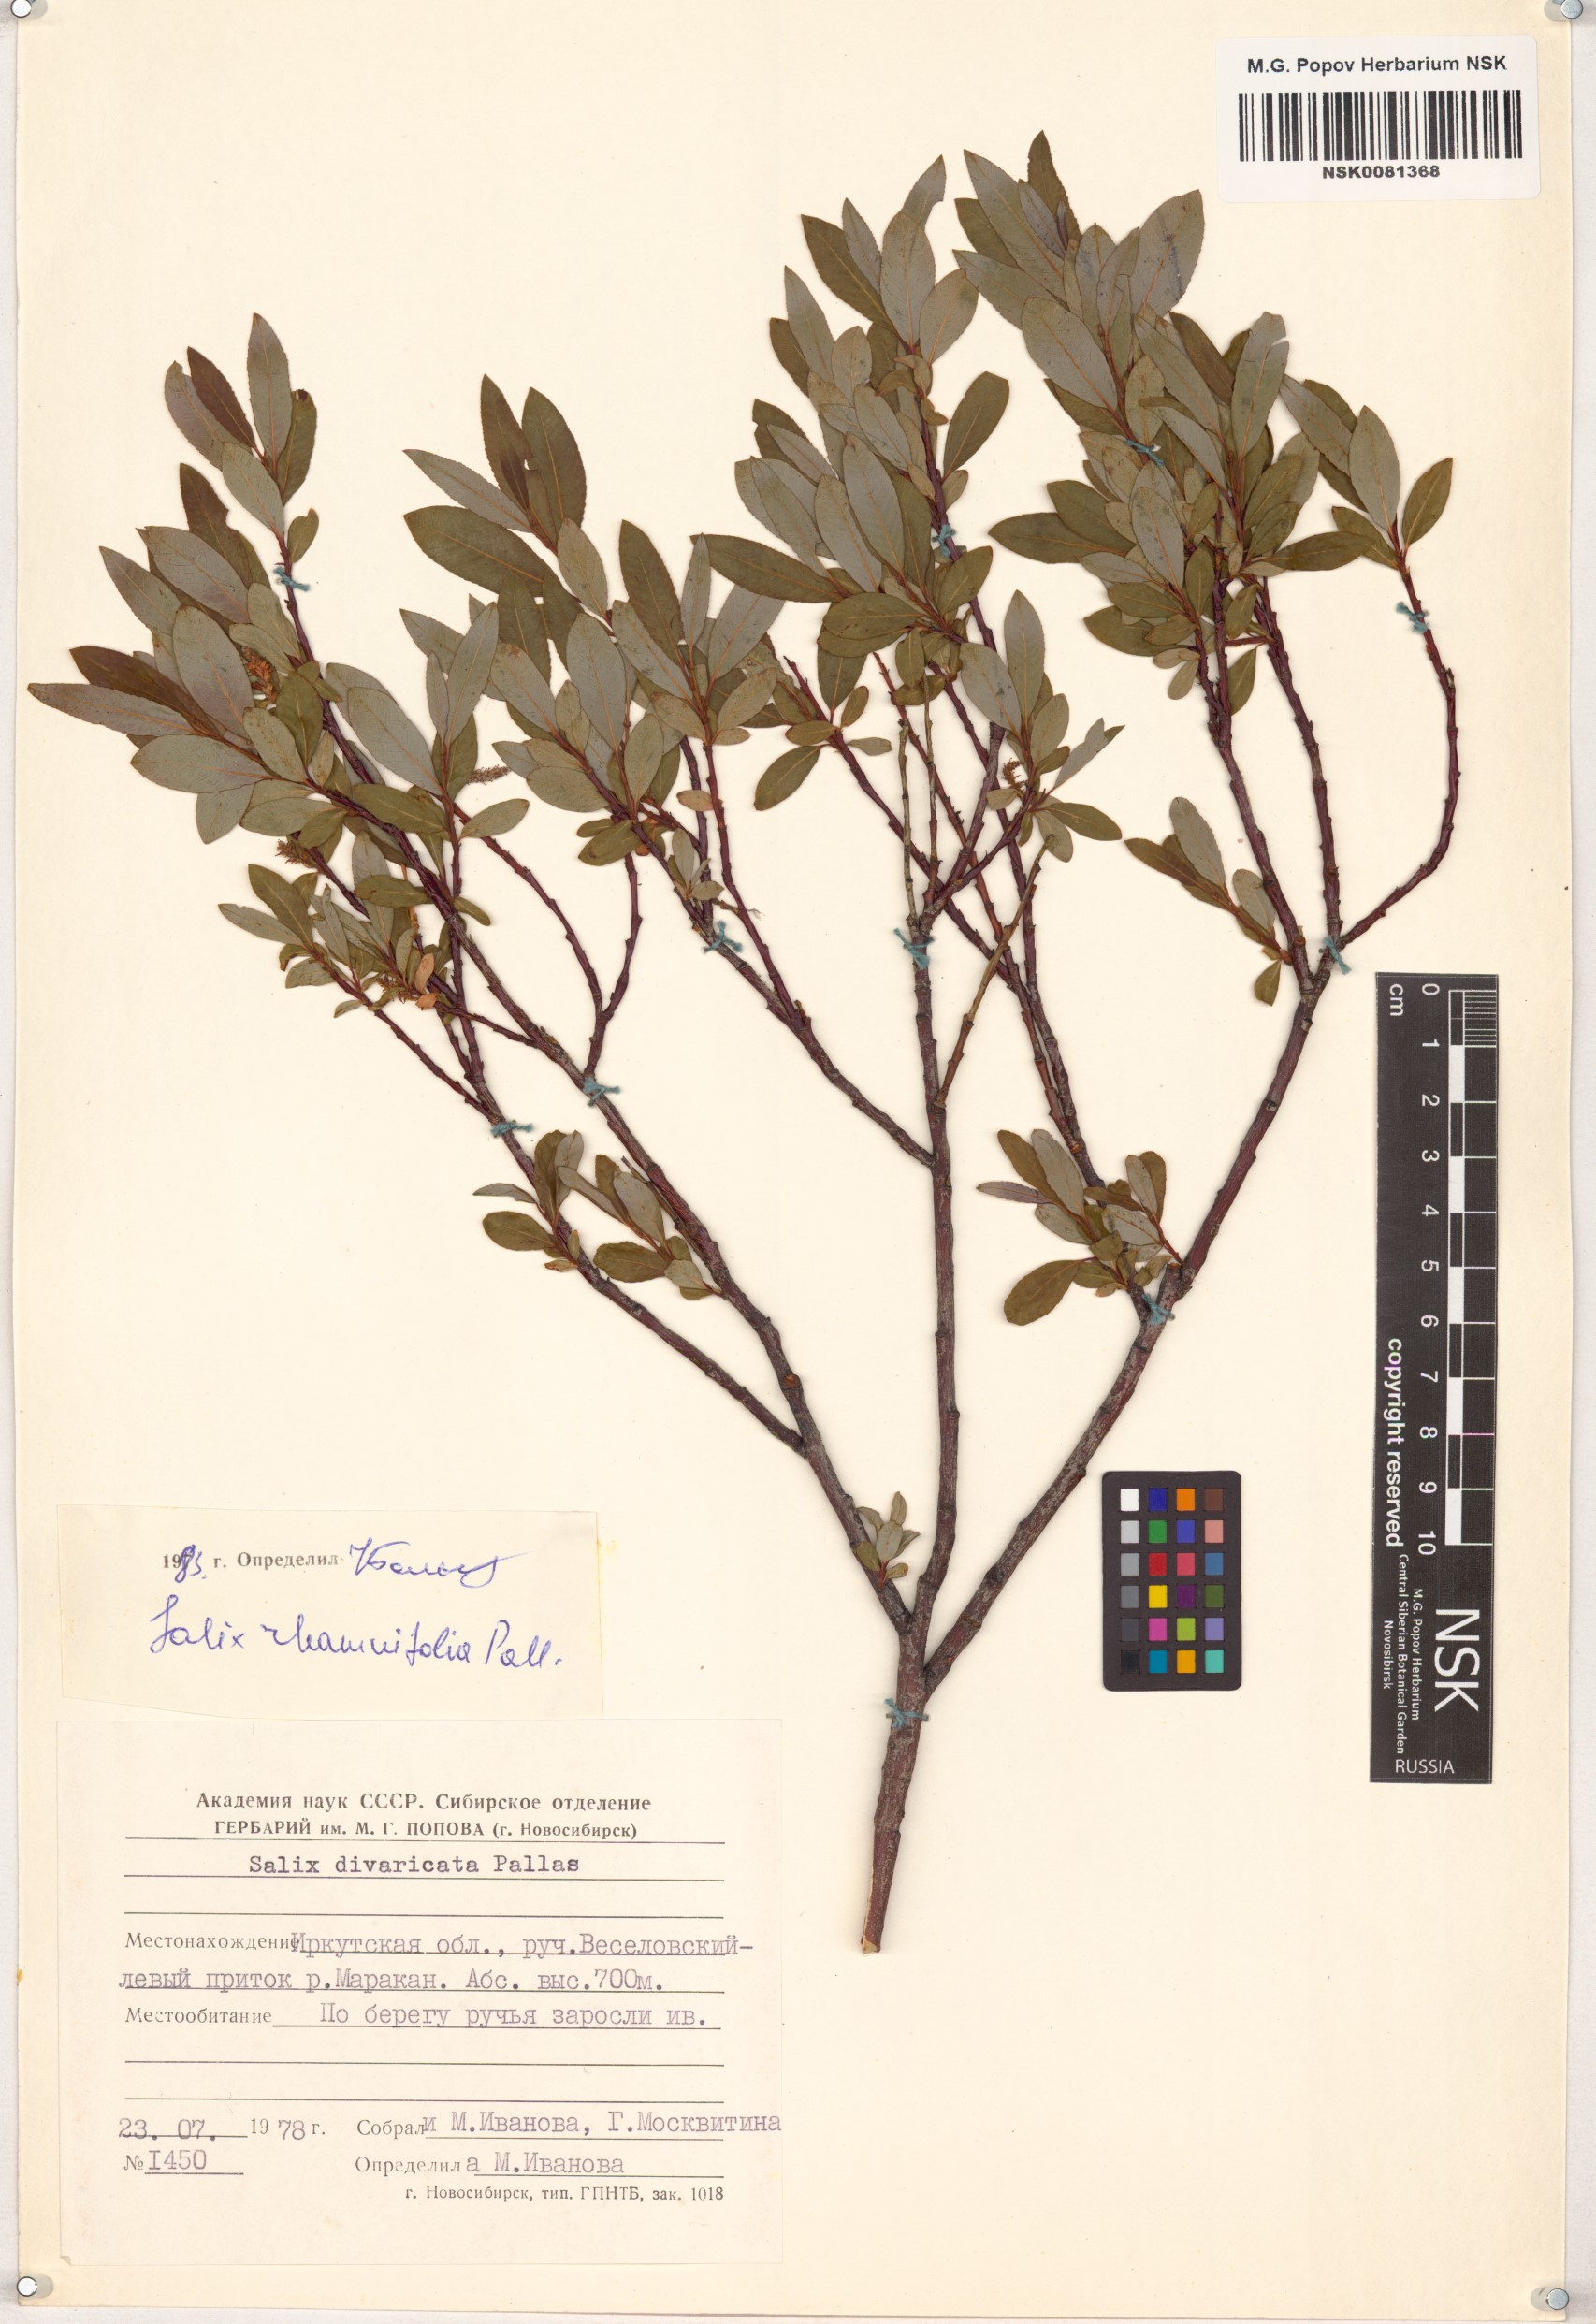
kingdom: Plantae
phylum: Tracheophyta
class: Magnoliopsida
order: Malpighiales
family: Salicaceae
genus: Salix
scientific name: Salix rhamnifolia
